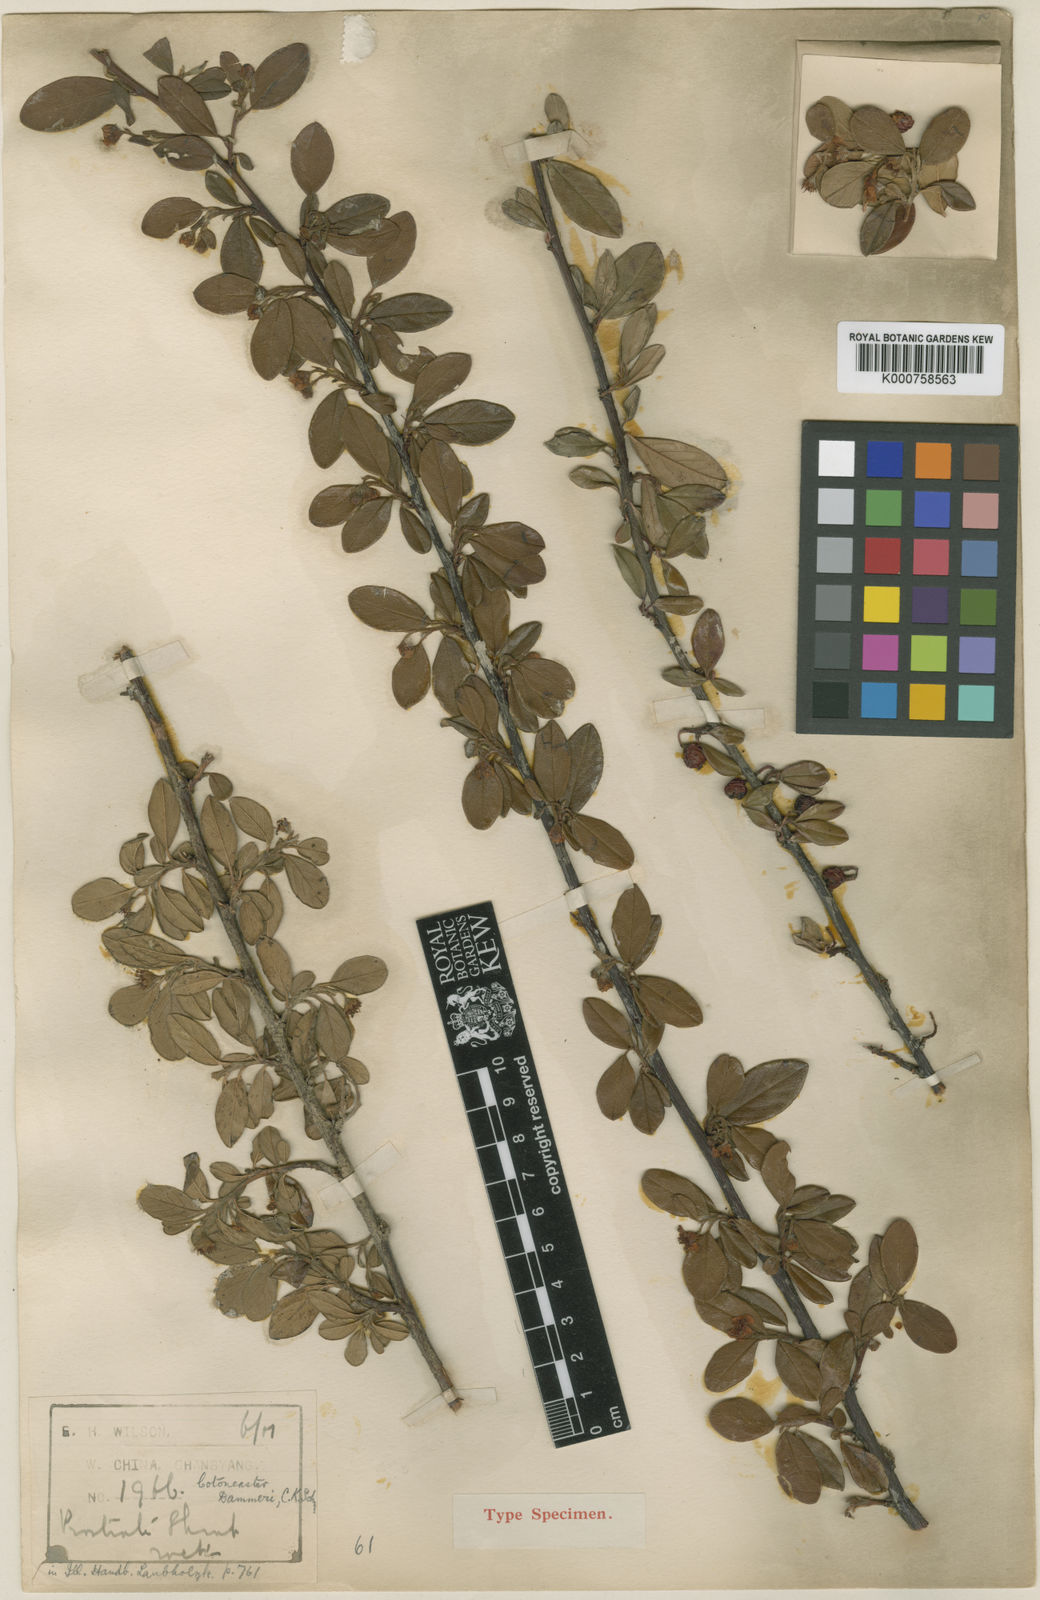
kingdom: Plantae
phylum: Tracheophyta
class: Magnoliopsida
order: Rosales
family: Rosaceae
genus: Cotoneaster
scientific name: Cotoneaster dammeri
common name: Bearberry cotoneaster
